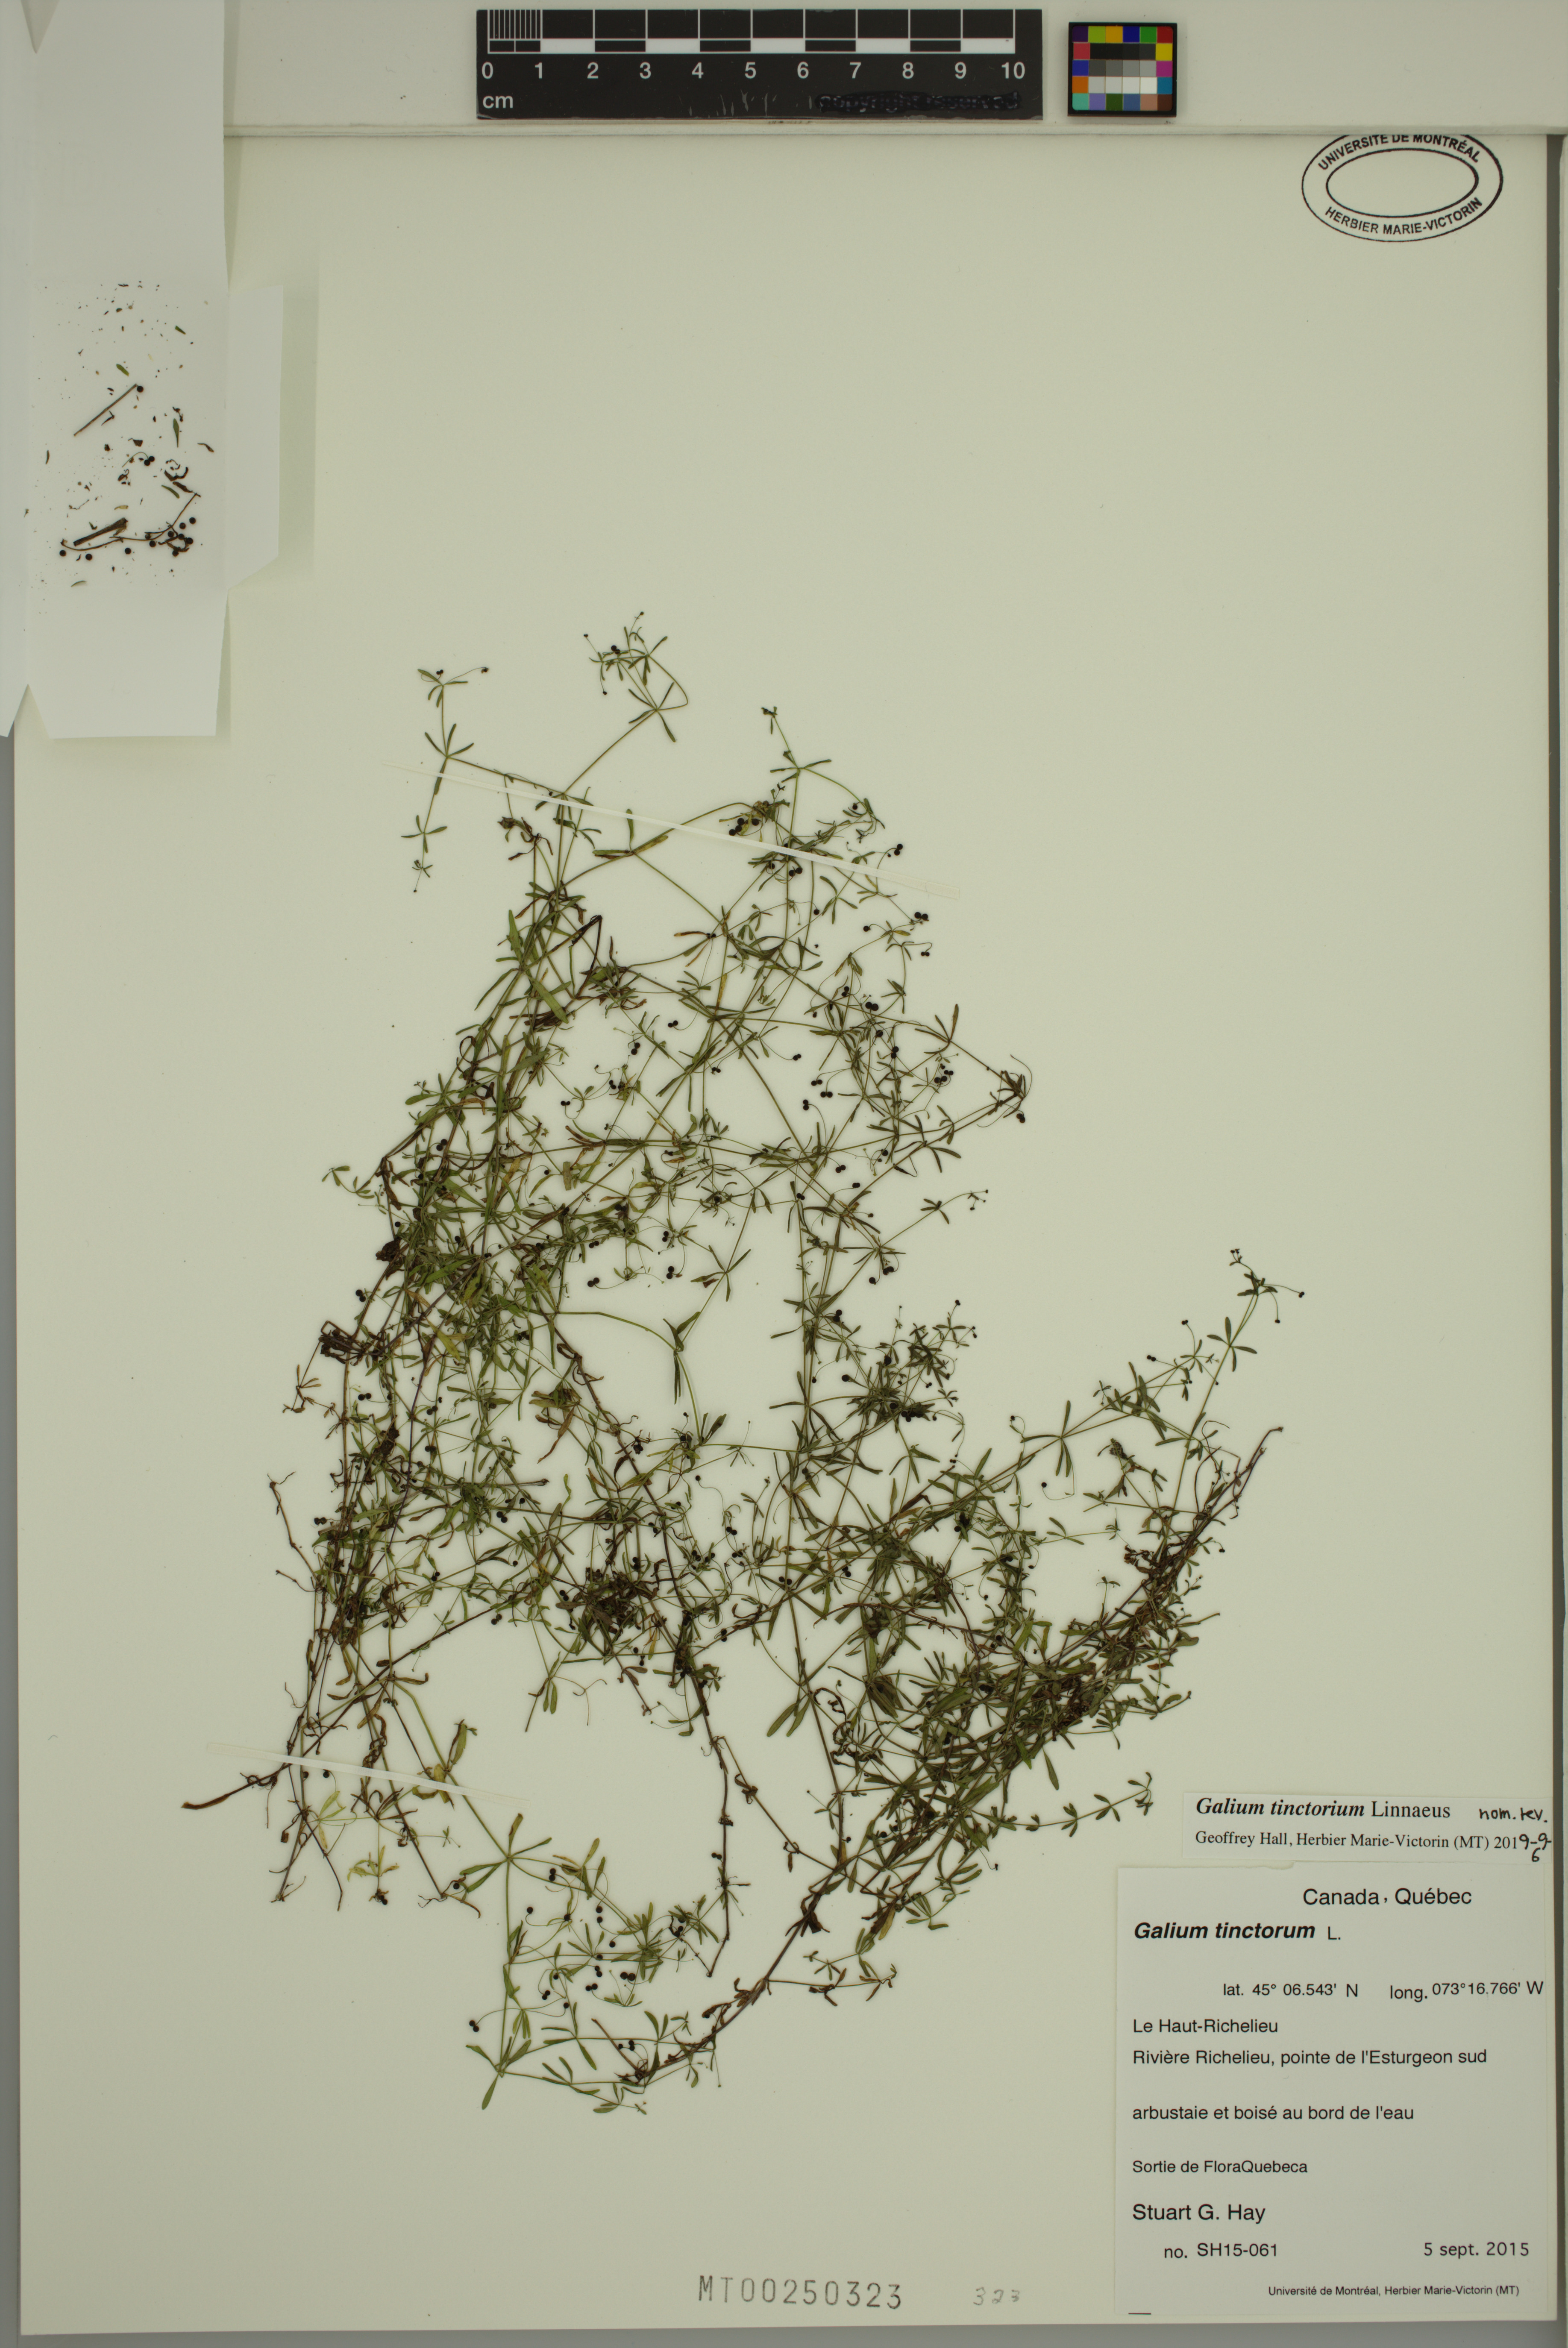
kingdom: Plantae
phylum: Tracheophyta
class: Magnoliopsida
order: Gentianales
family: Rubiaceae
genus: Galium
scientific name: Galium tinctorium
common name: Bedstraw
